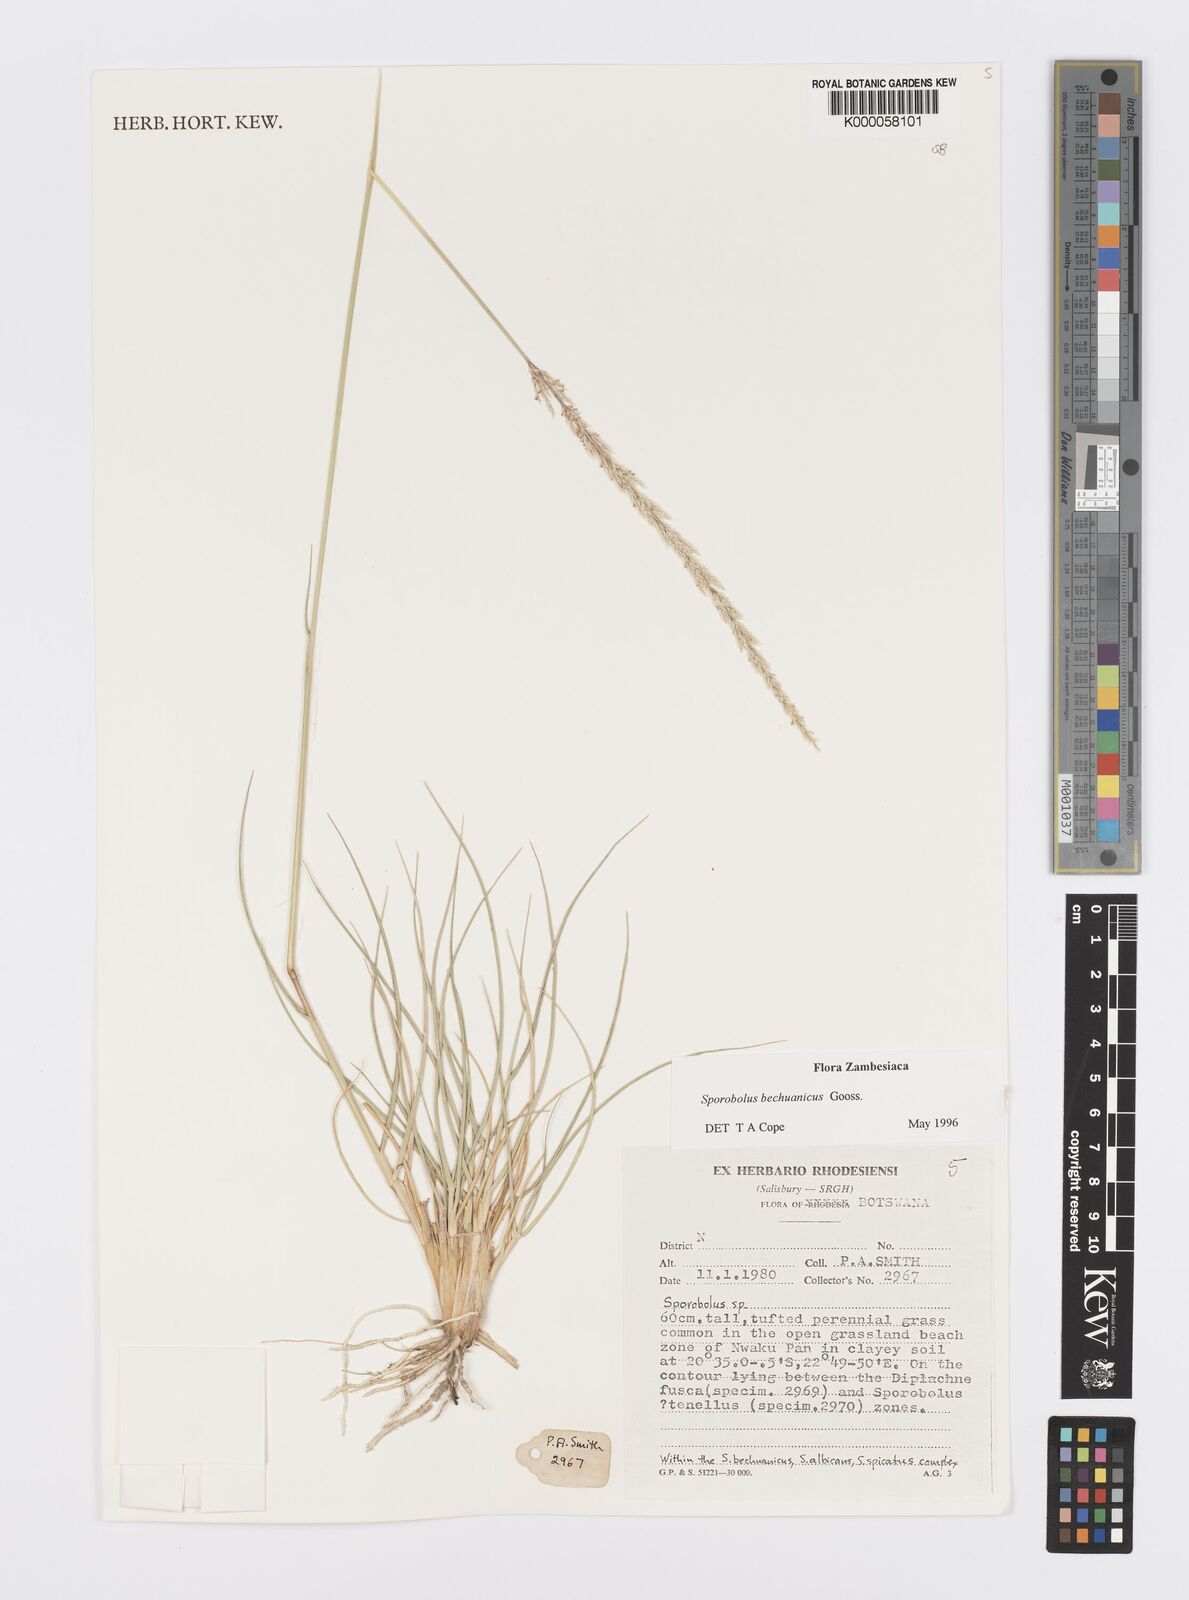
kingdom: Plantae
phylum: Tracheophyta
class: Liliopsida
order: Poales
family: Poaceae
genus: Sporobolus
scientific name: Sporobolus bechuanicus
